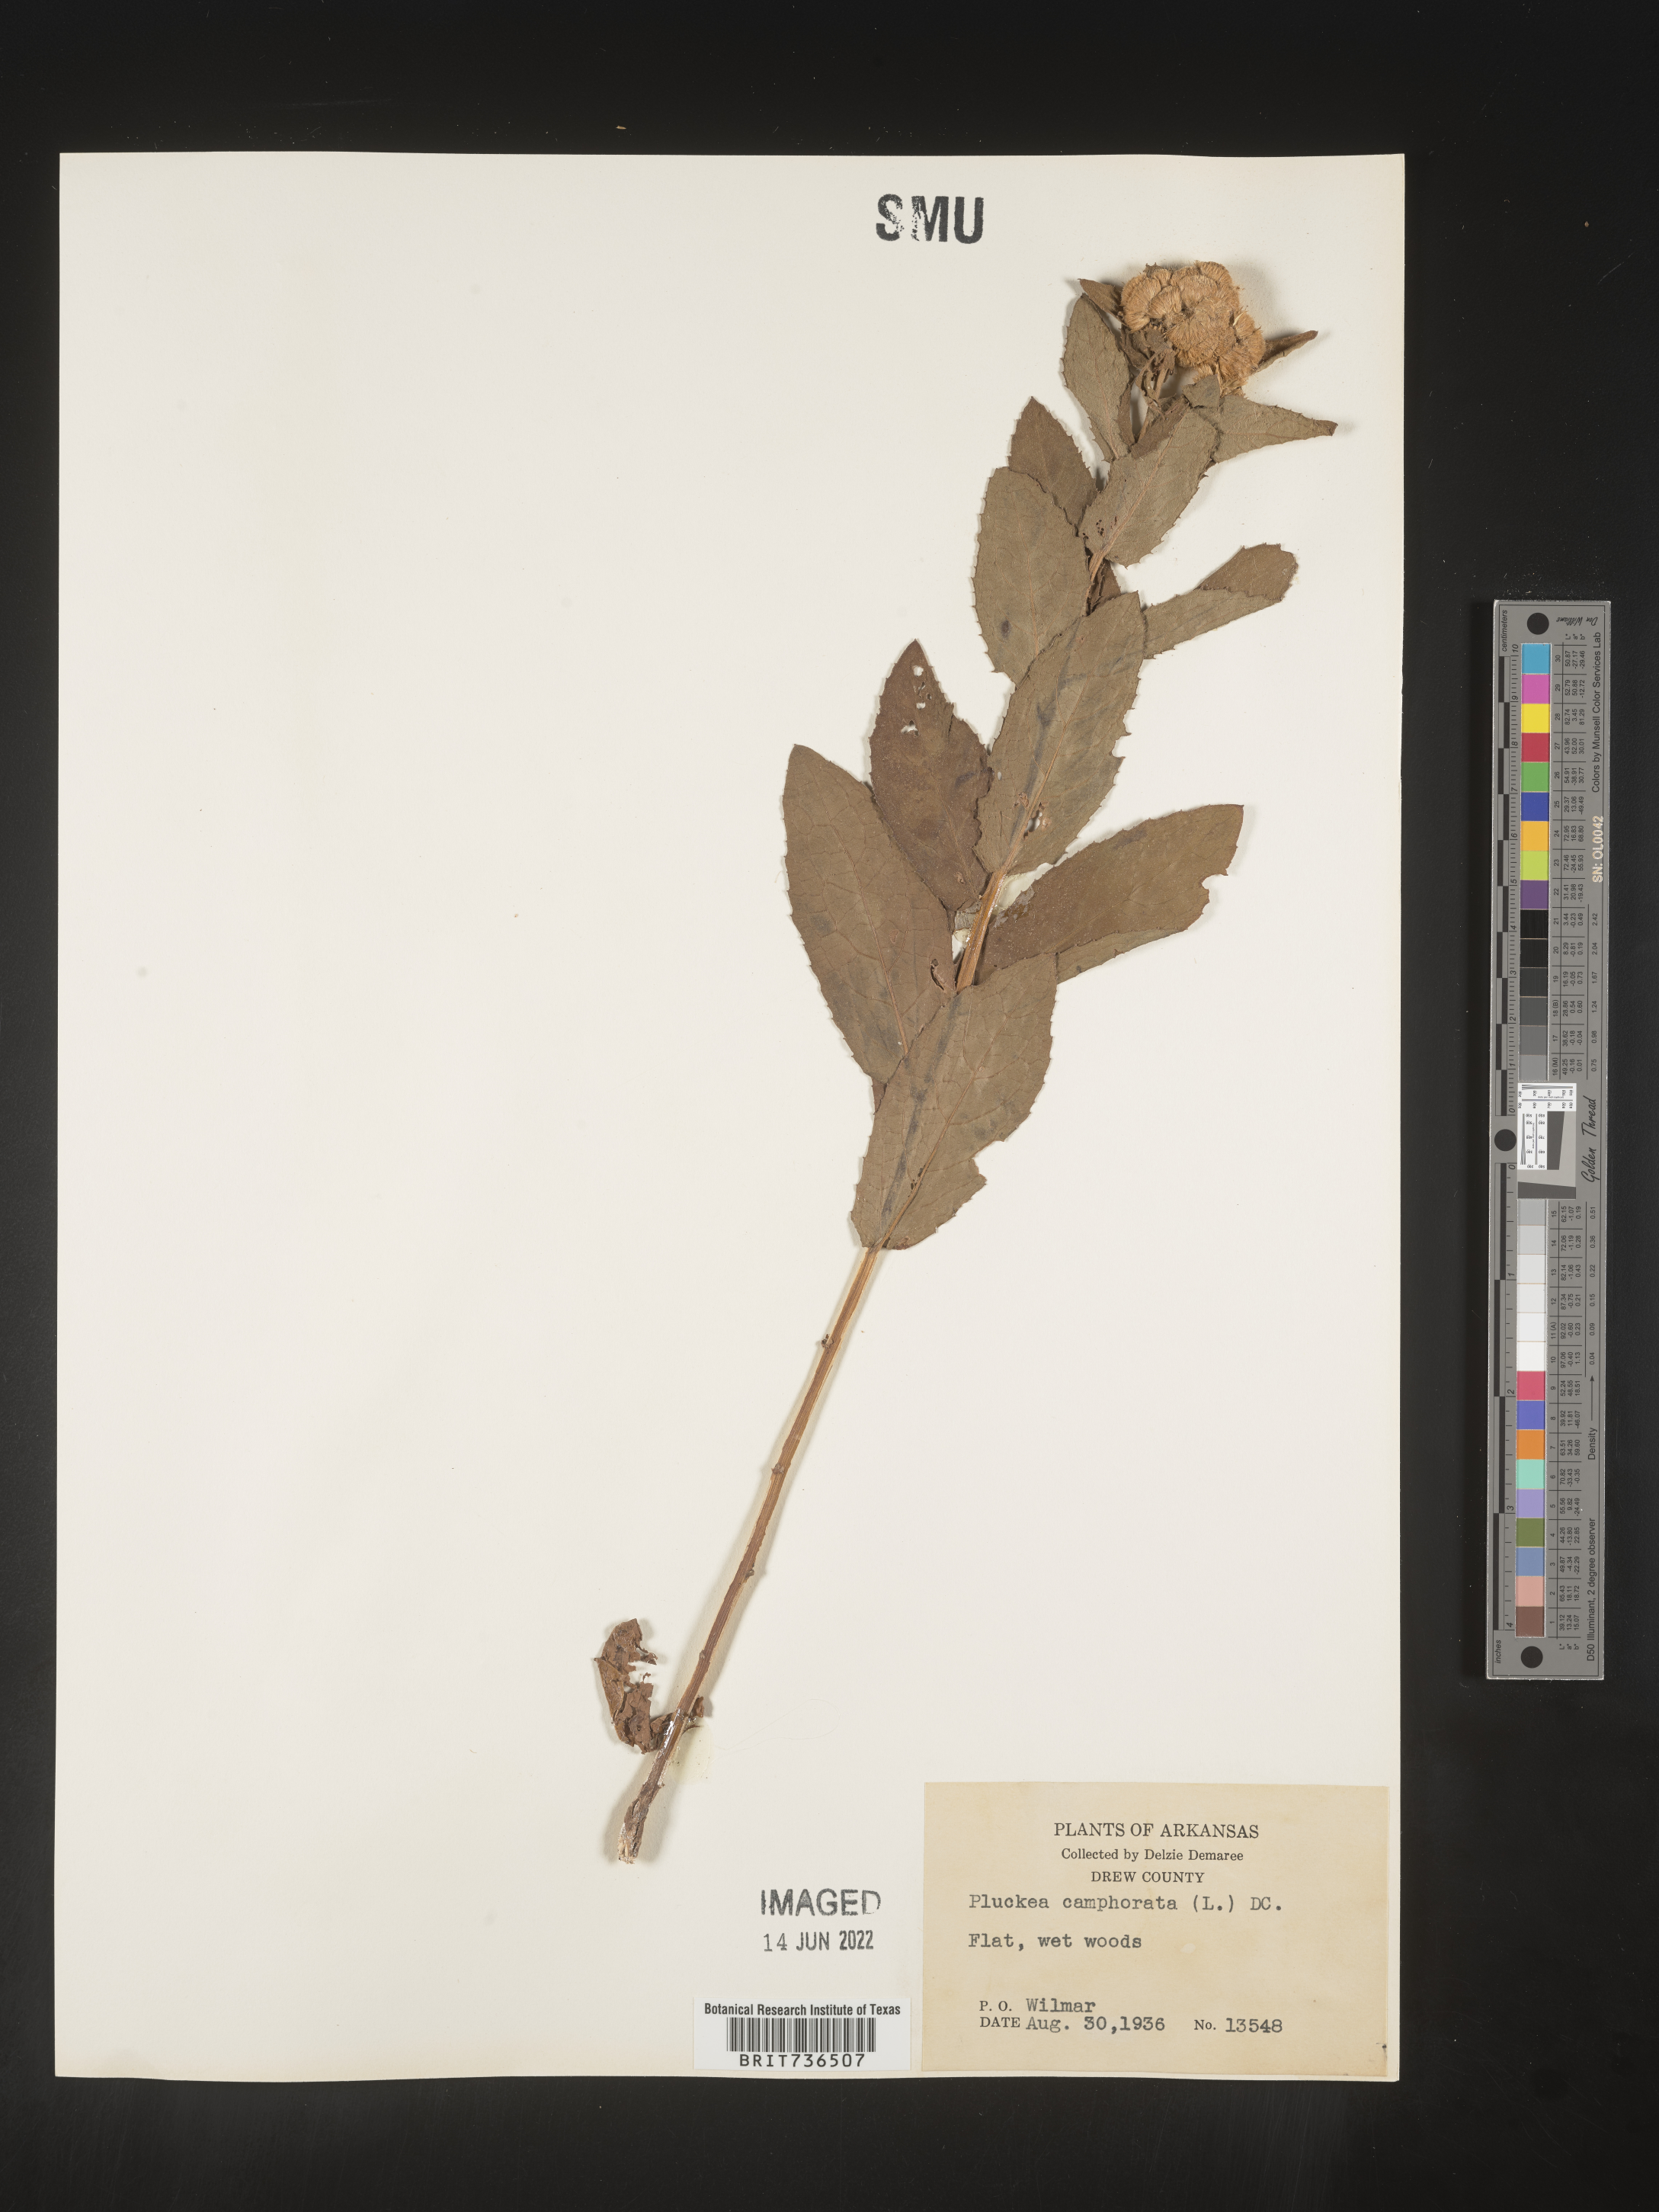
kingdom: Plantae
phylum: Tracheophyta
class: Magnoliopsida
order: Asterales
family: Asteraceae
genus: Pluchea
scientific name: Pluchea camphorata
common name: Camphor pluchea
